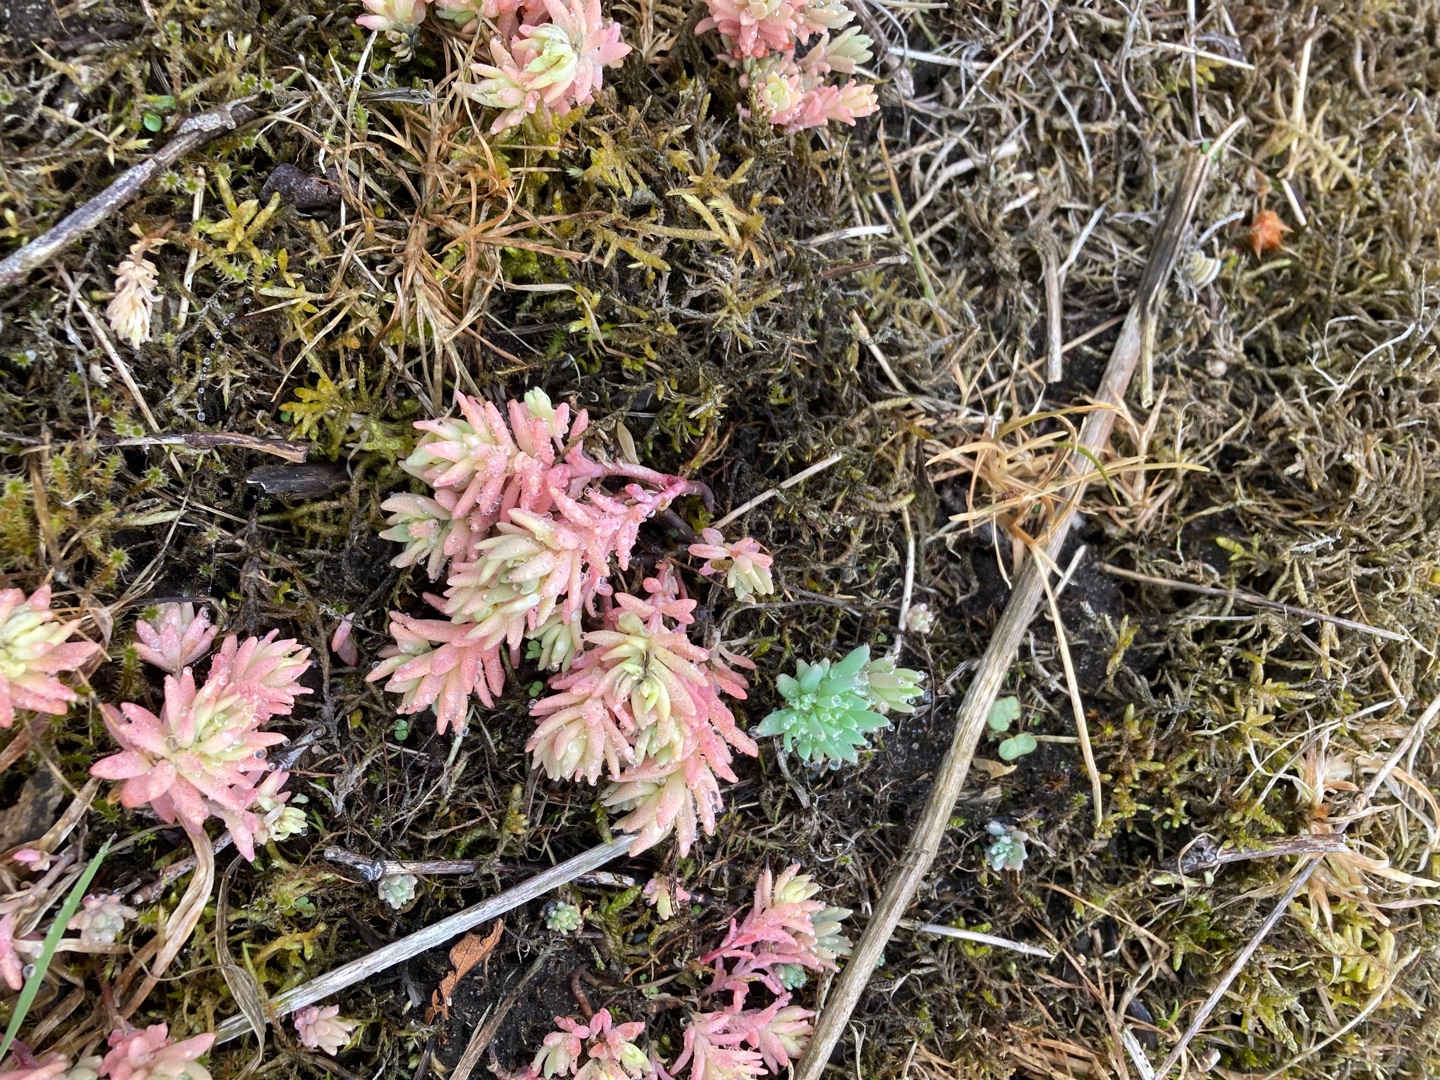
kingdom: Plantae
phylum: Tracheophyta
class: Magnoliopsida
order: Saxifragales
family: Crassulaceae
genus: Petrosedum
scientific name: Petrosedum rupestre
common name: Bjerg-stenurt
